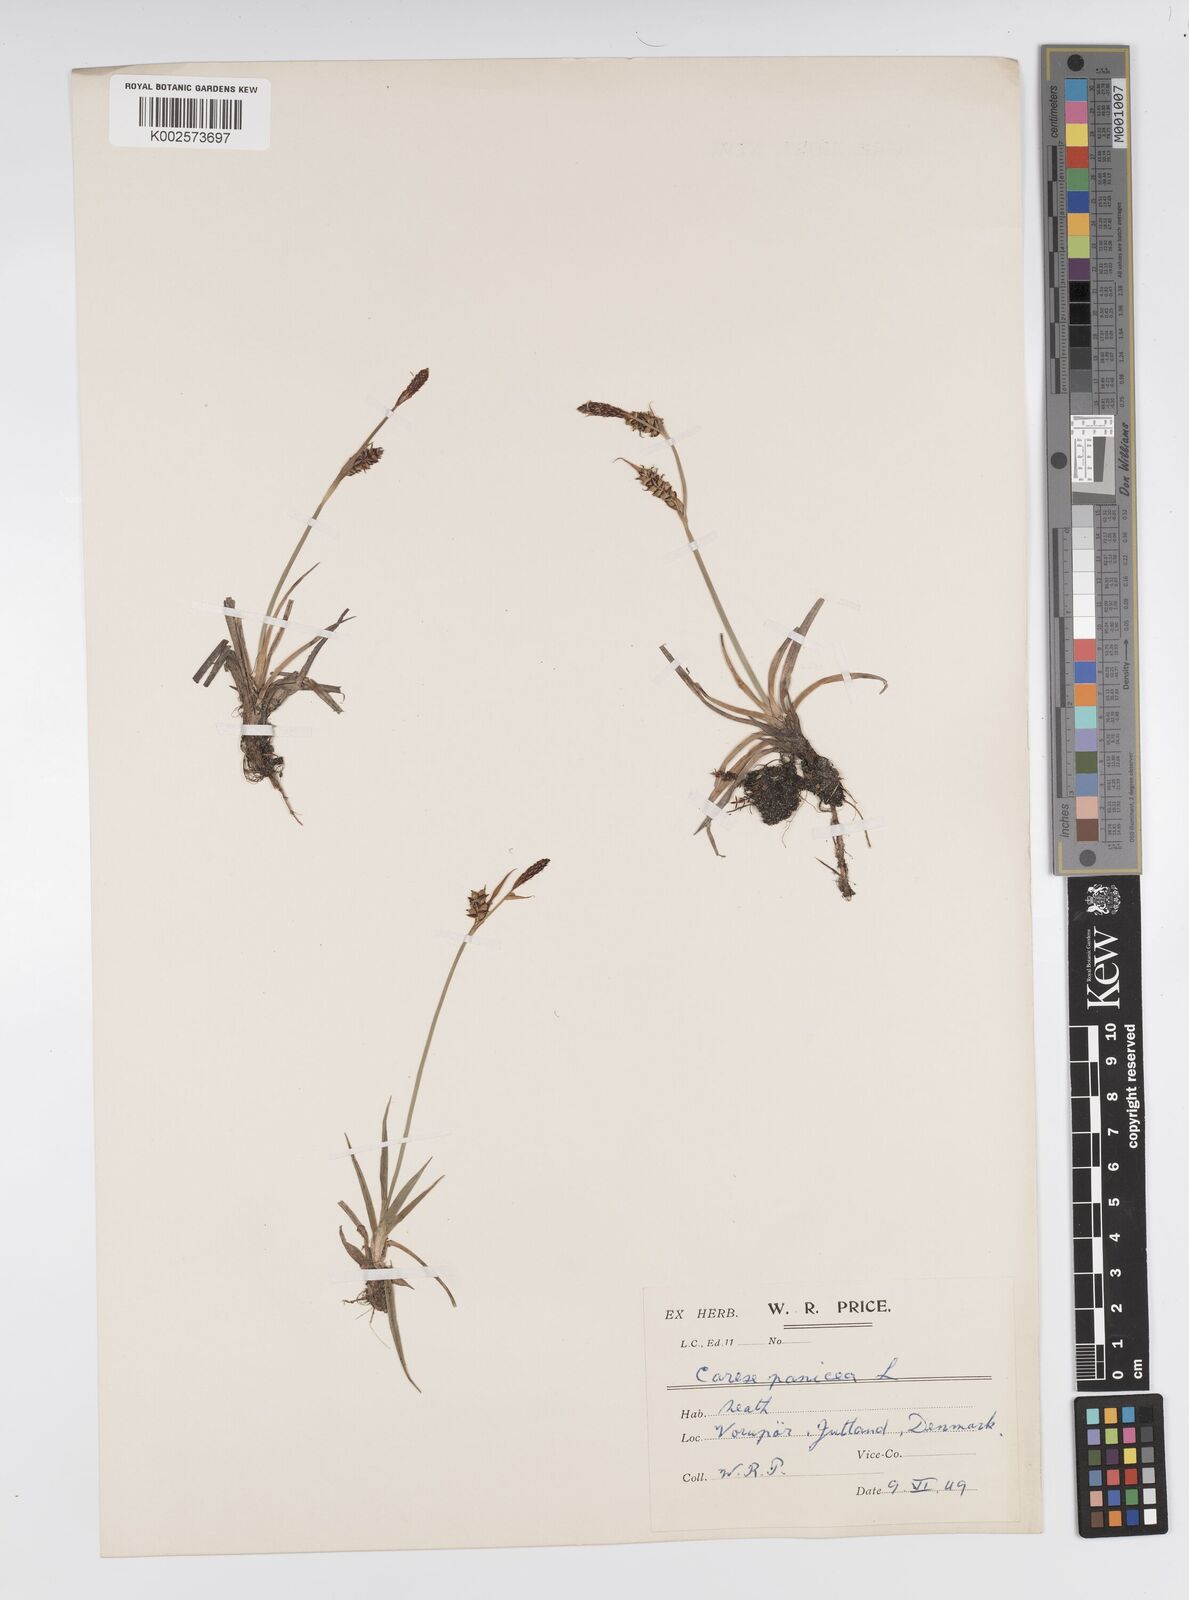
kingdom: Plantae
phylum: Tracheophyta
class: Liliopsida
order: Poales
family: Cyperaceae
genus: Carex
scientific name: Carex panicea
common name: Carnation sedge
